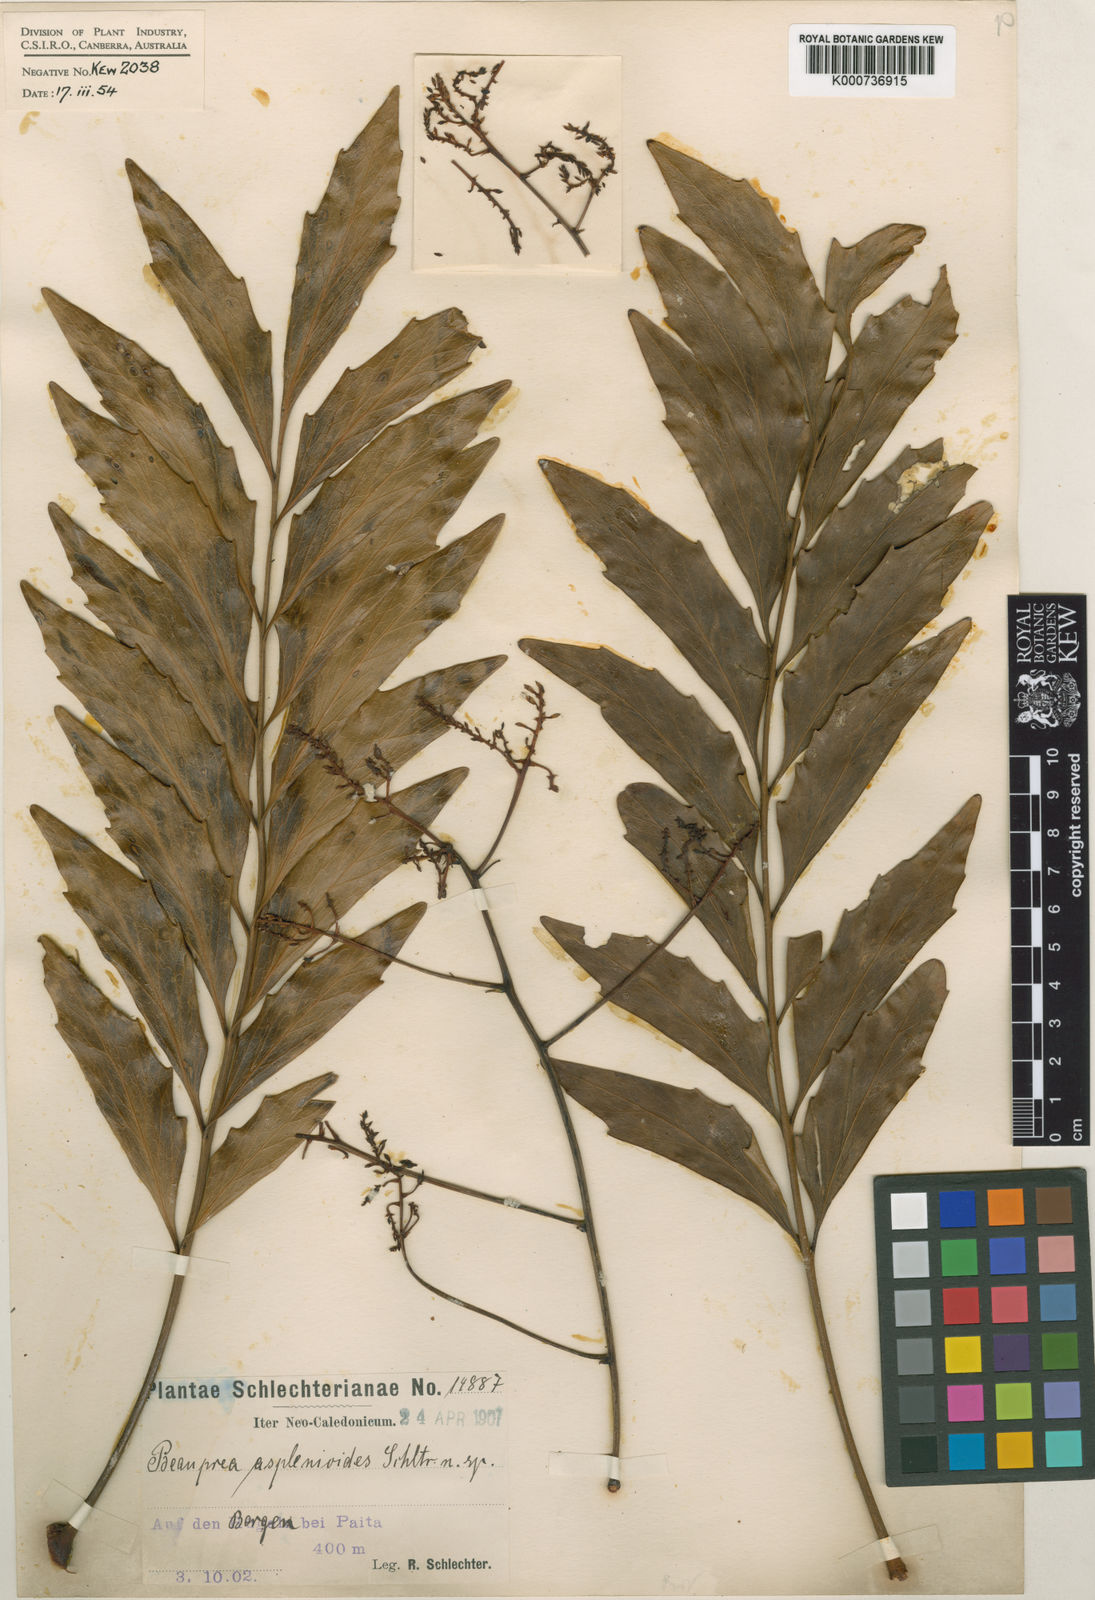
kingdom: Plantae
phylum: Tracheophyta
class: Magnoliopsida
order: Proteales
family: Proteaceae
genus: Beauprea
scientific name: Beauprea asplenioides
